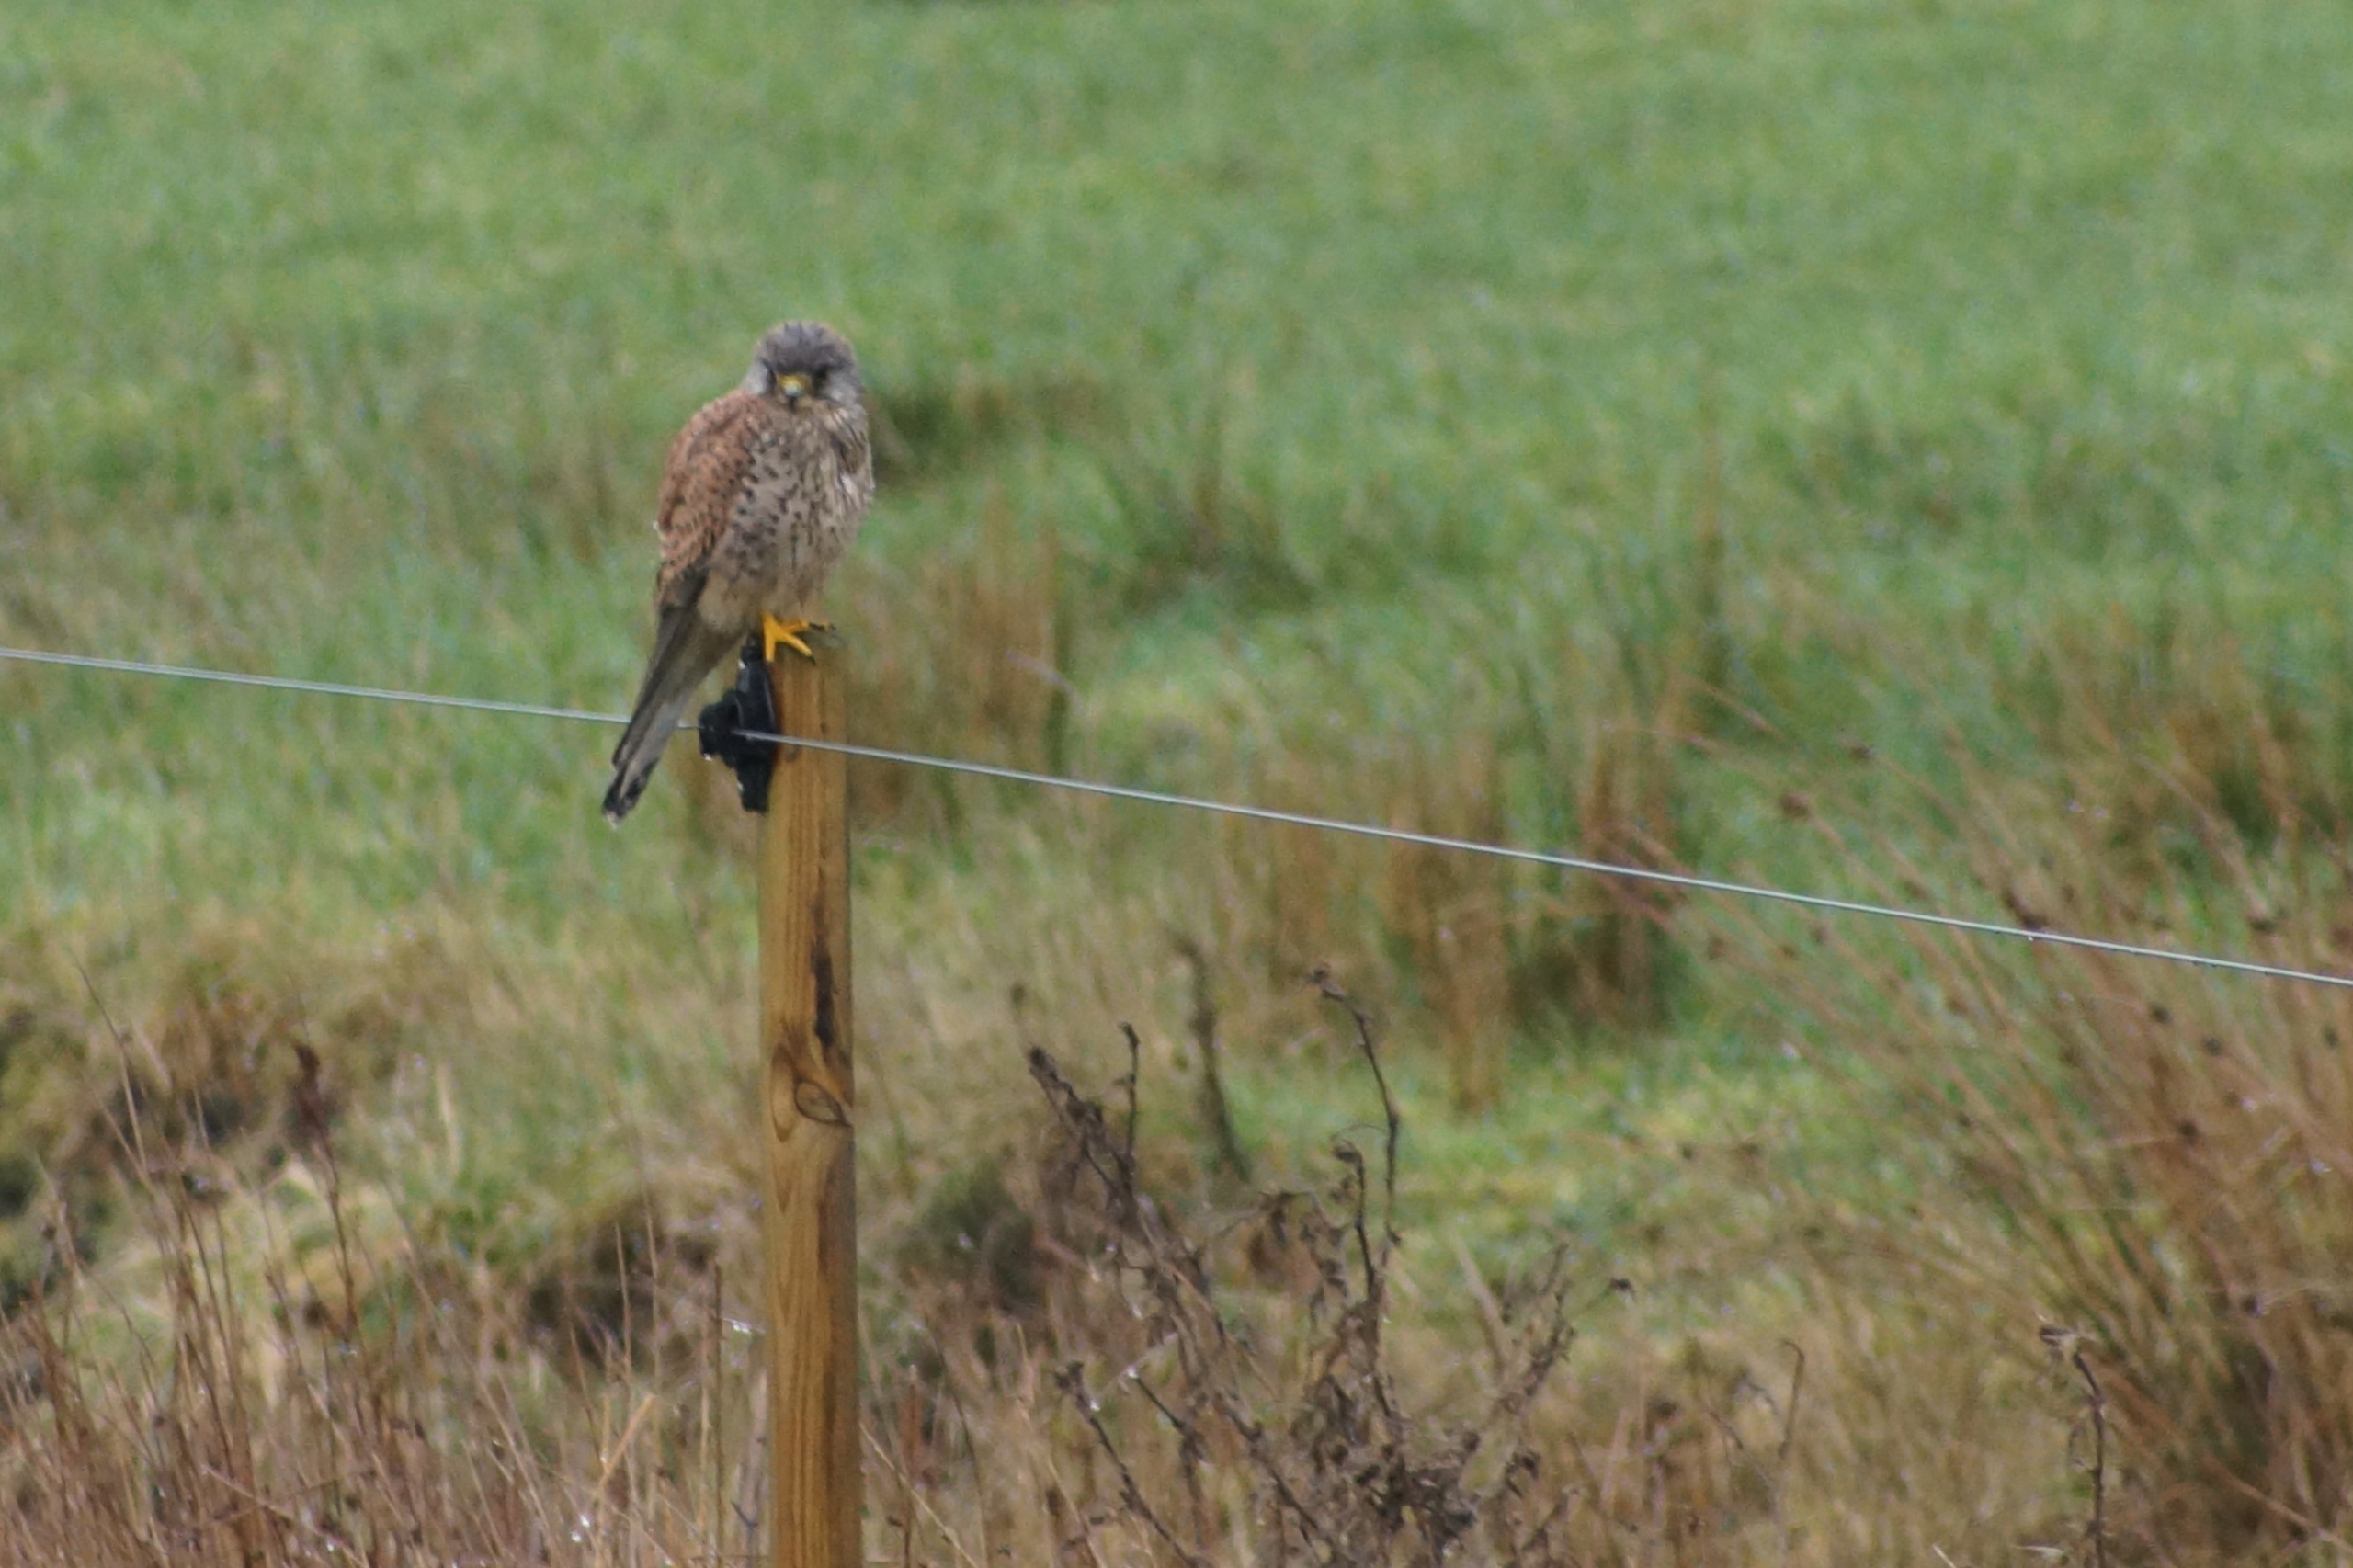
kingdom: Animalia
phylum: Chordata
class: Aves
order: Falconiformes
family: Falconidae
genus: Falco
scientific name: Falco tinnunculus
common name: Tårnfalk
